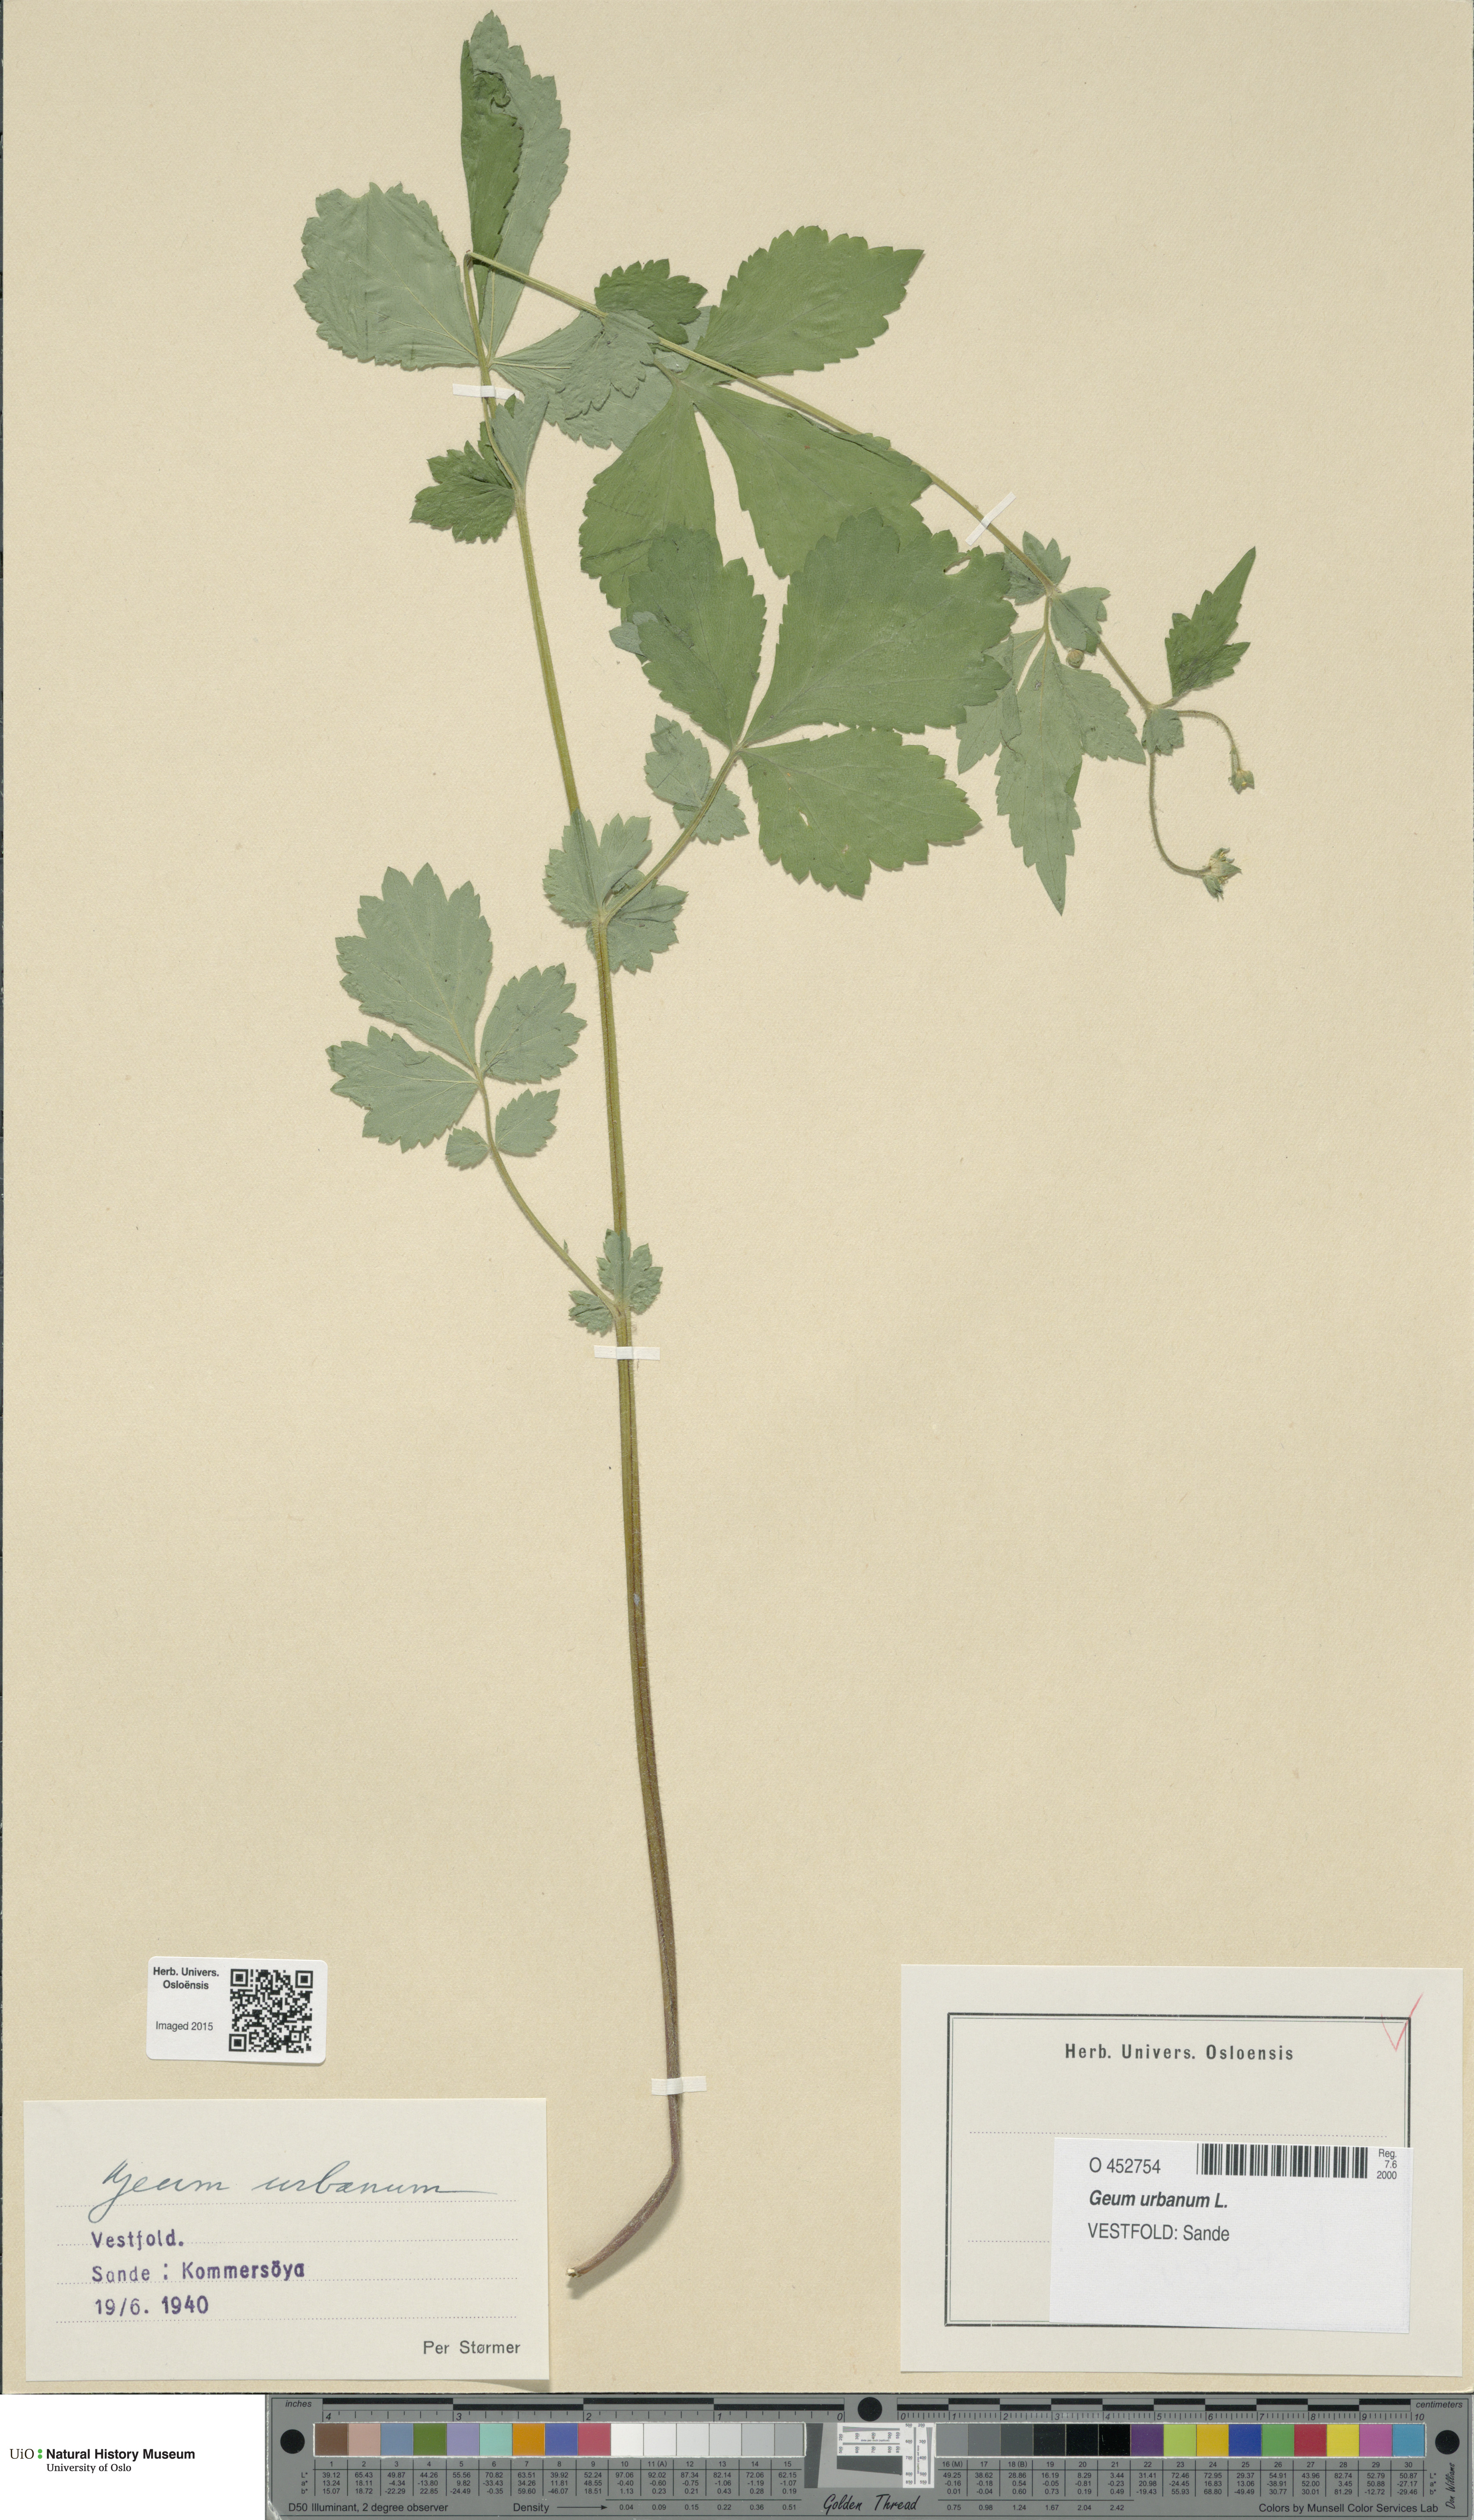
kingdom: Plantae
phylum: Tracheophyta
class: Magnoliopsida
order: Rosales
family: Rosaceae
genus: Geum
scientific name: Geum urbanum
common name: Wood avens
